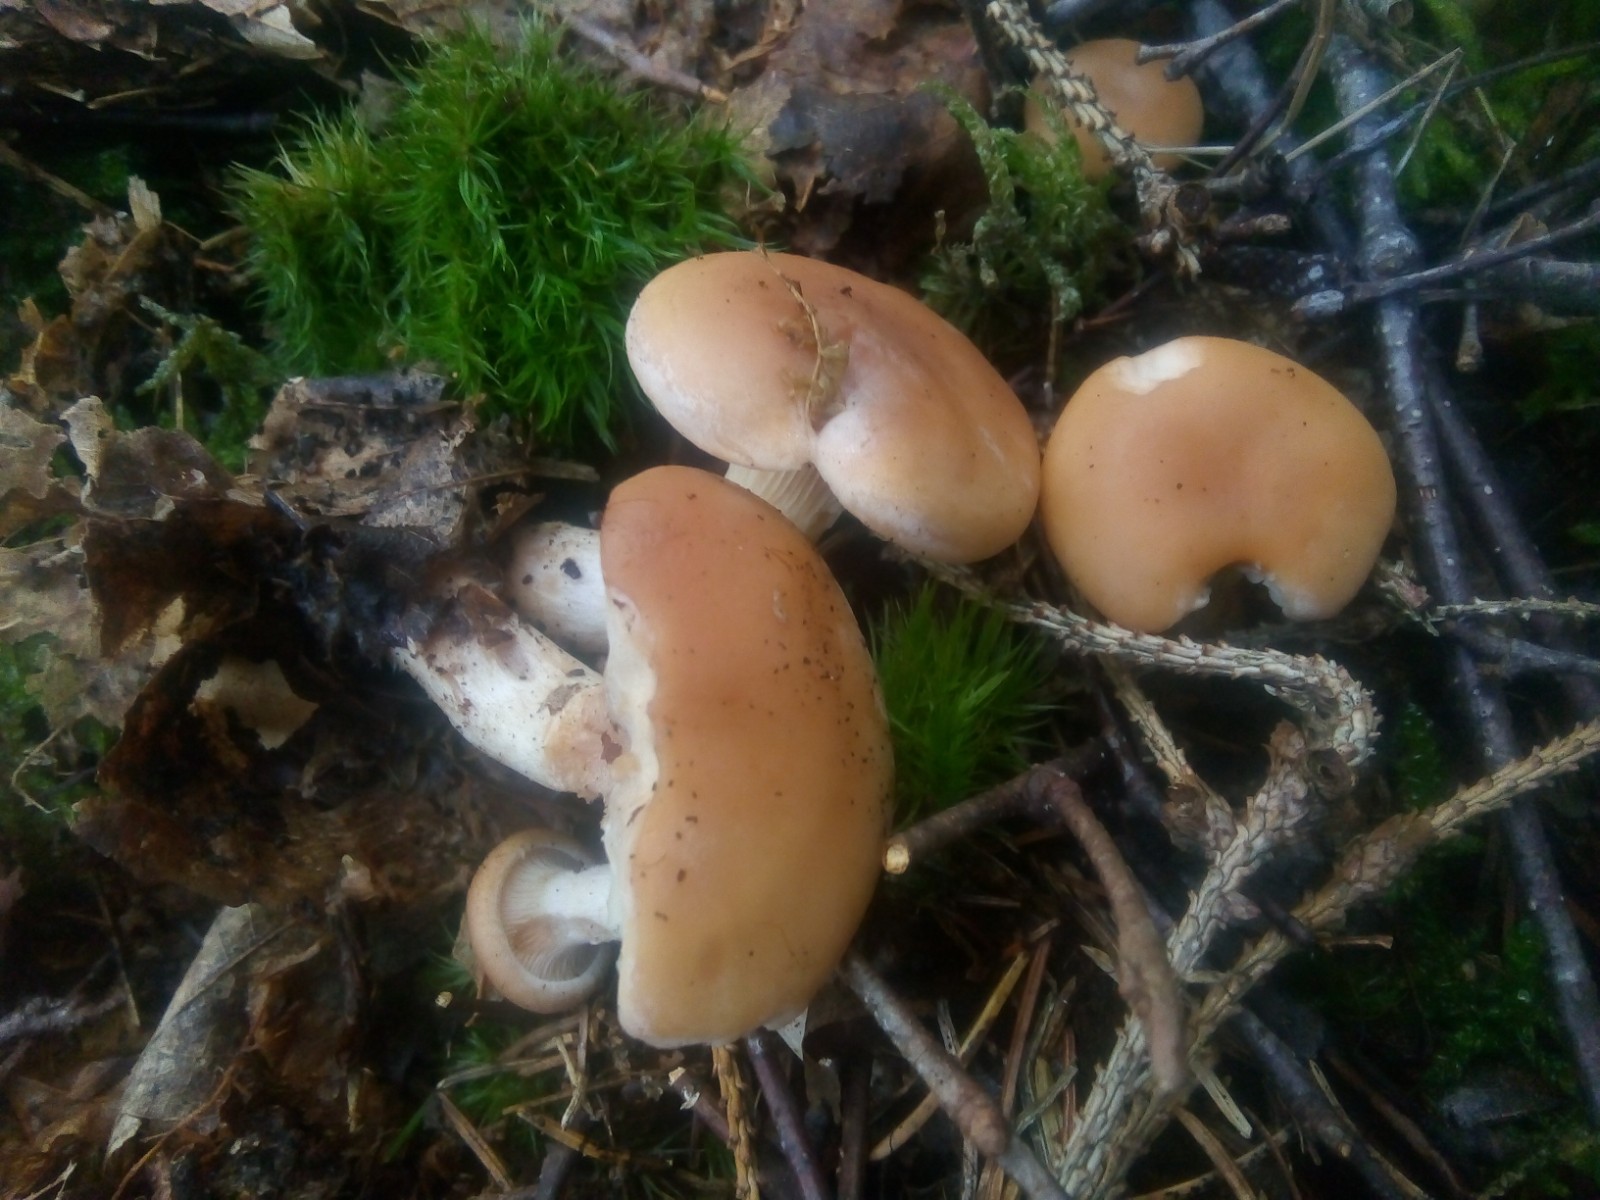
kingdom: Fungi
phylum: Basidiomycota
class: Agaricomycetes
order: Agaricales
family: Tricholomataceae
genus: Paralepista
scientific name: Paralepista flaccida
